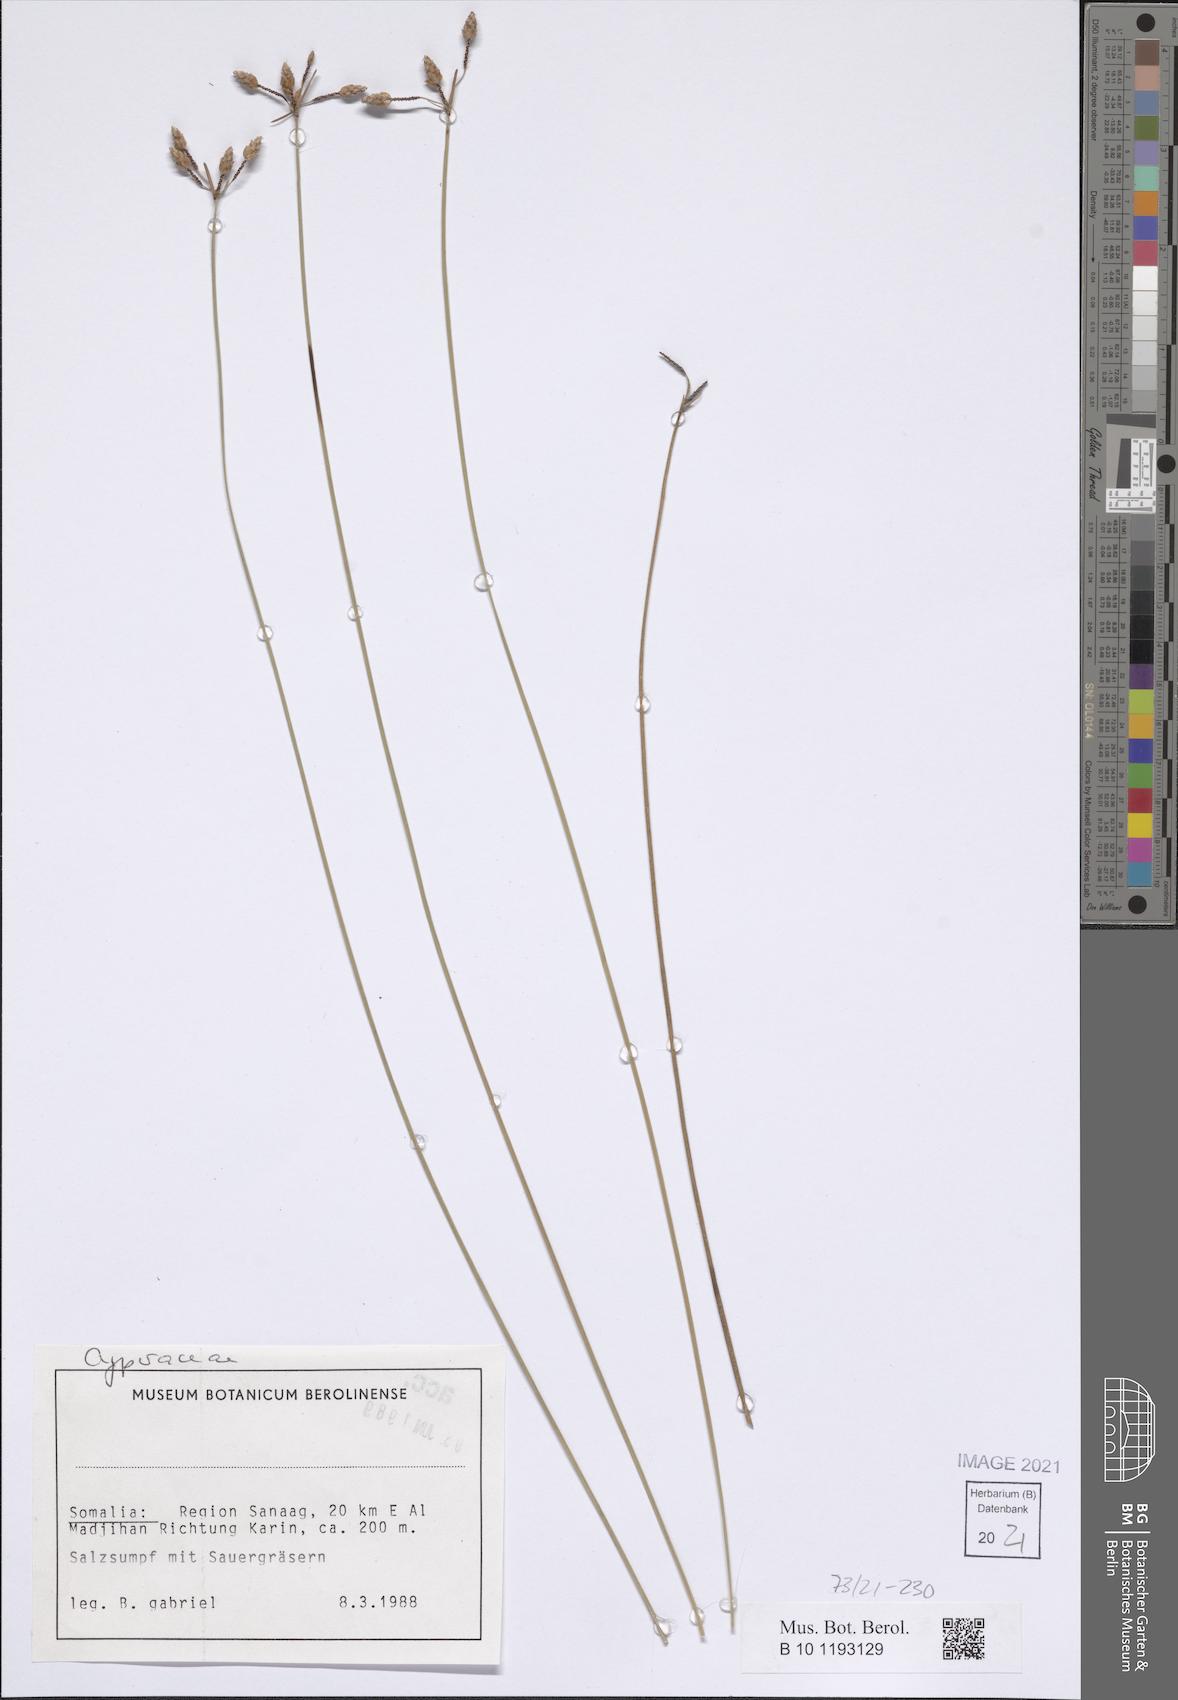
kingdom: Plantae
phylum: Tracheophyta
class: Liliopsida
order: Poales
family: Cyperaceae
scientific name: Cyperaceae
